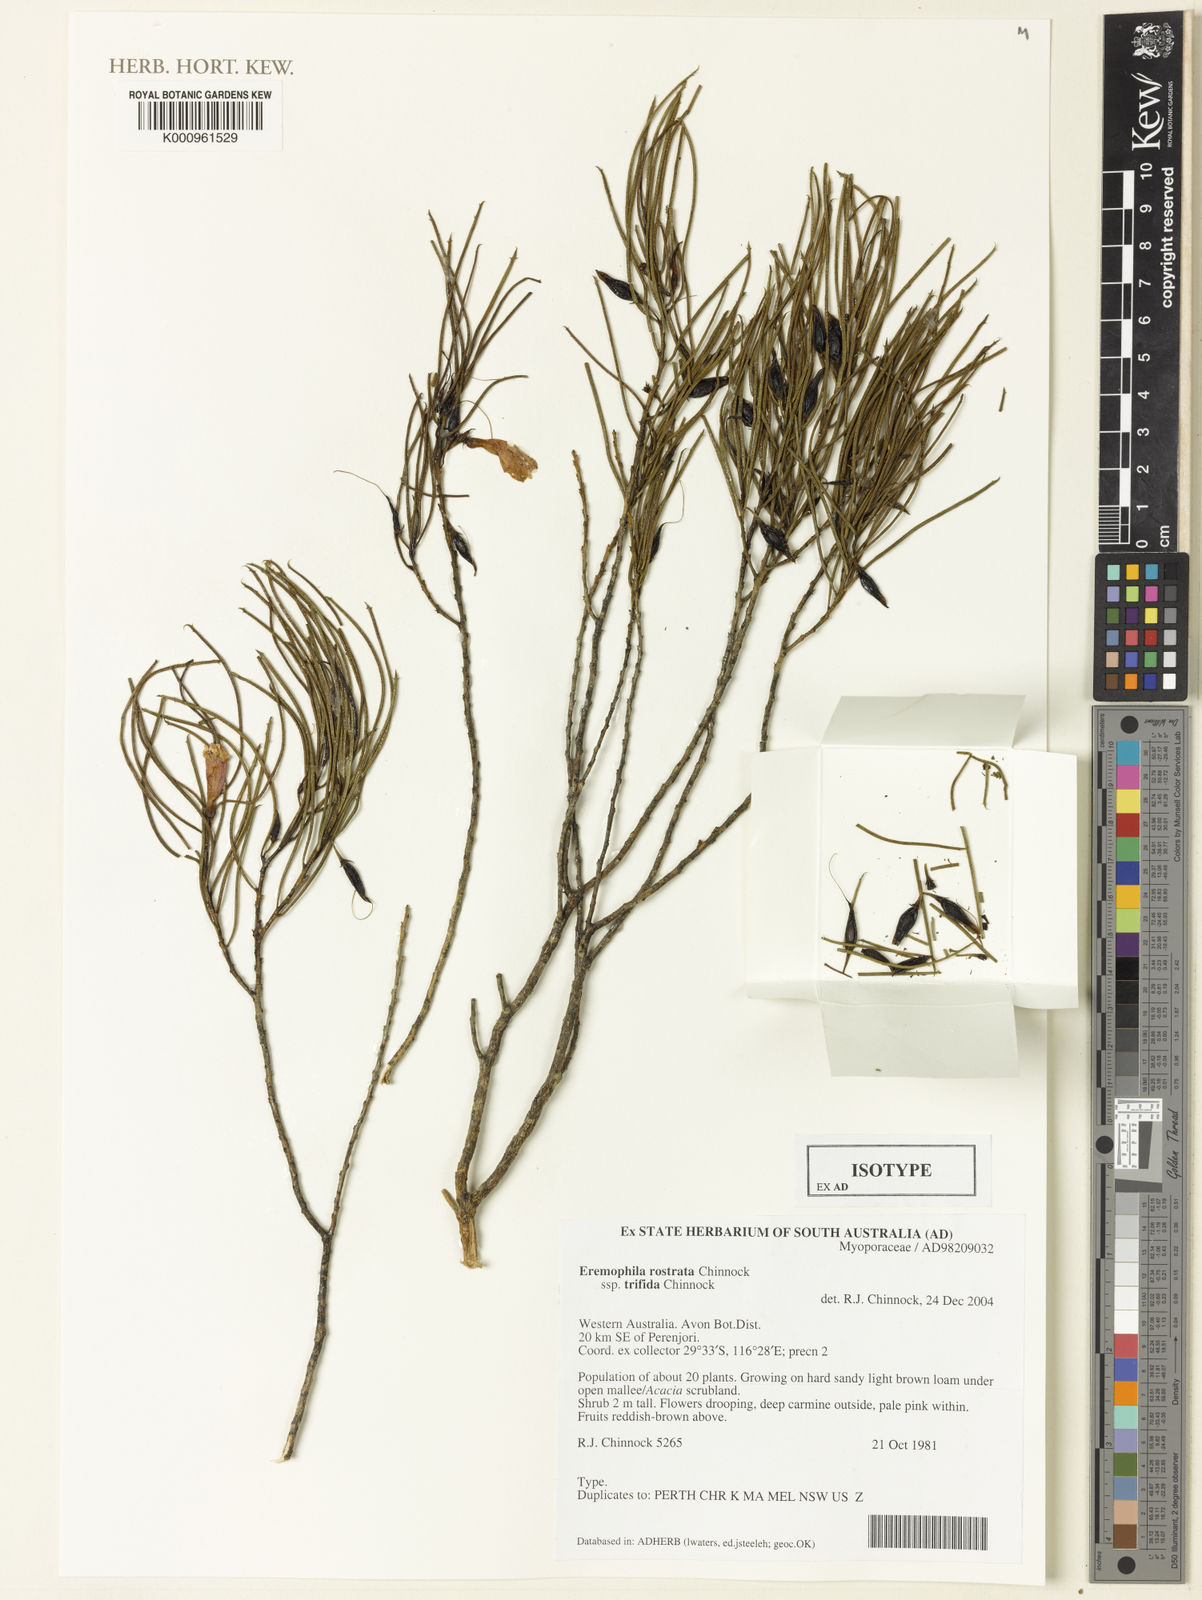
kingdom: Plantae
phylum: Tracheophyta
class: Magnoliopsida
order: Lamiales
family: Scrophulariaceae
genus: Eremophila
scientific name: Eremophila rostrata
